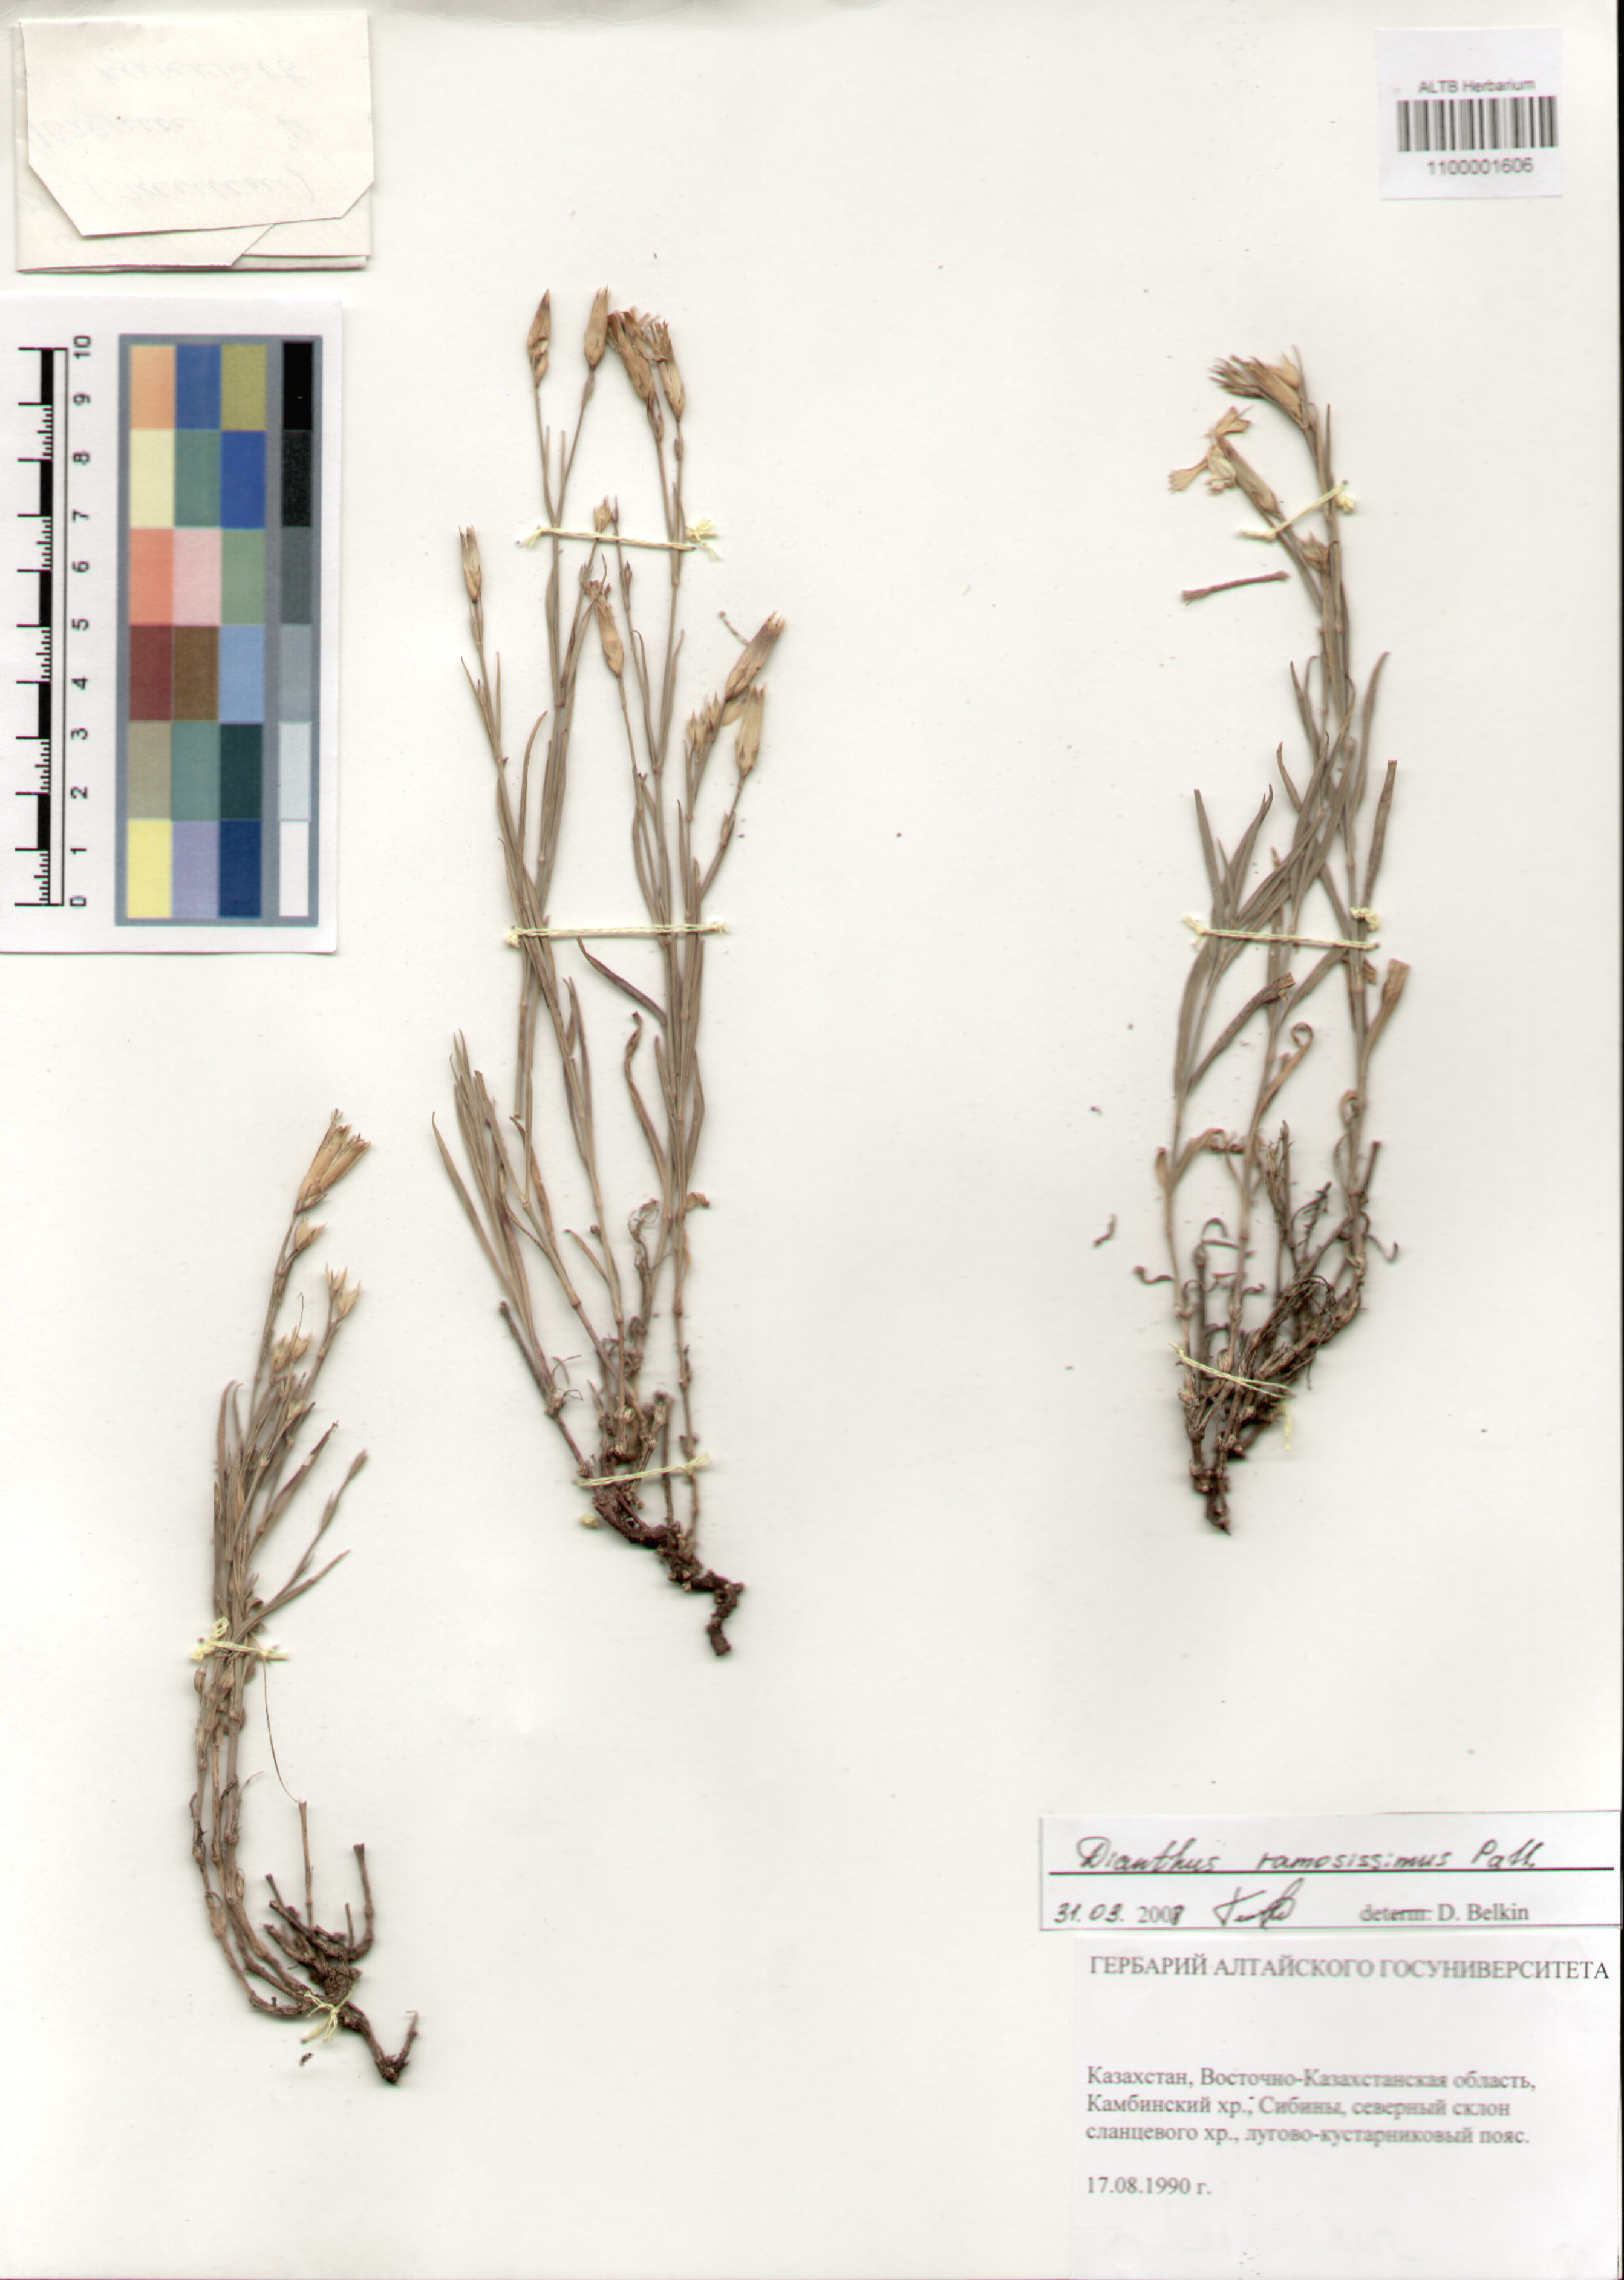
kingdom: Plantae
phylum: Tracheophyta
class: Magnoliopsida
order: Caryophyllales
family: Caryophyllaceae
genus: Dianthus
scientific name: Dianthus ramosissimus
